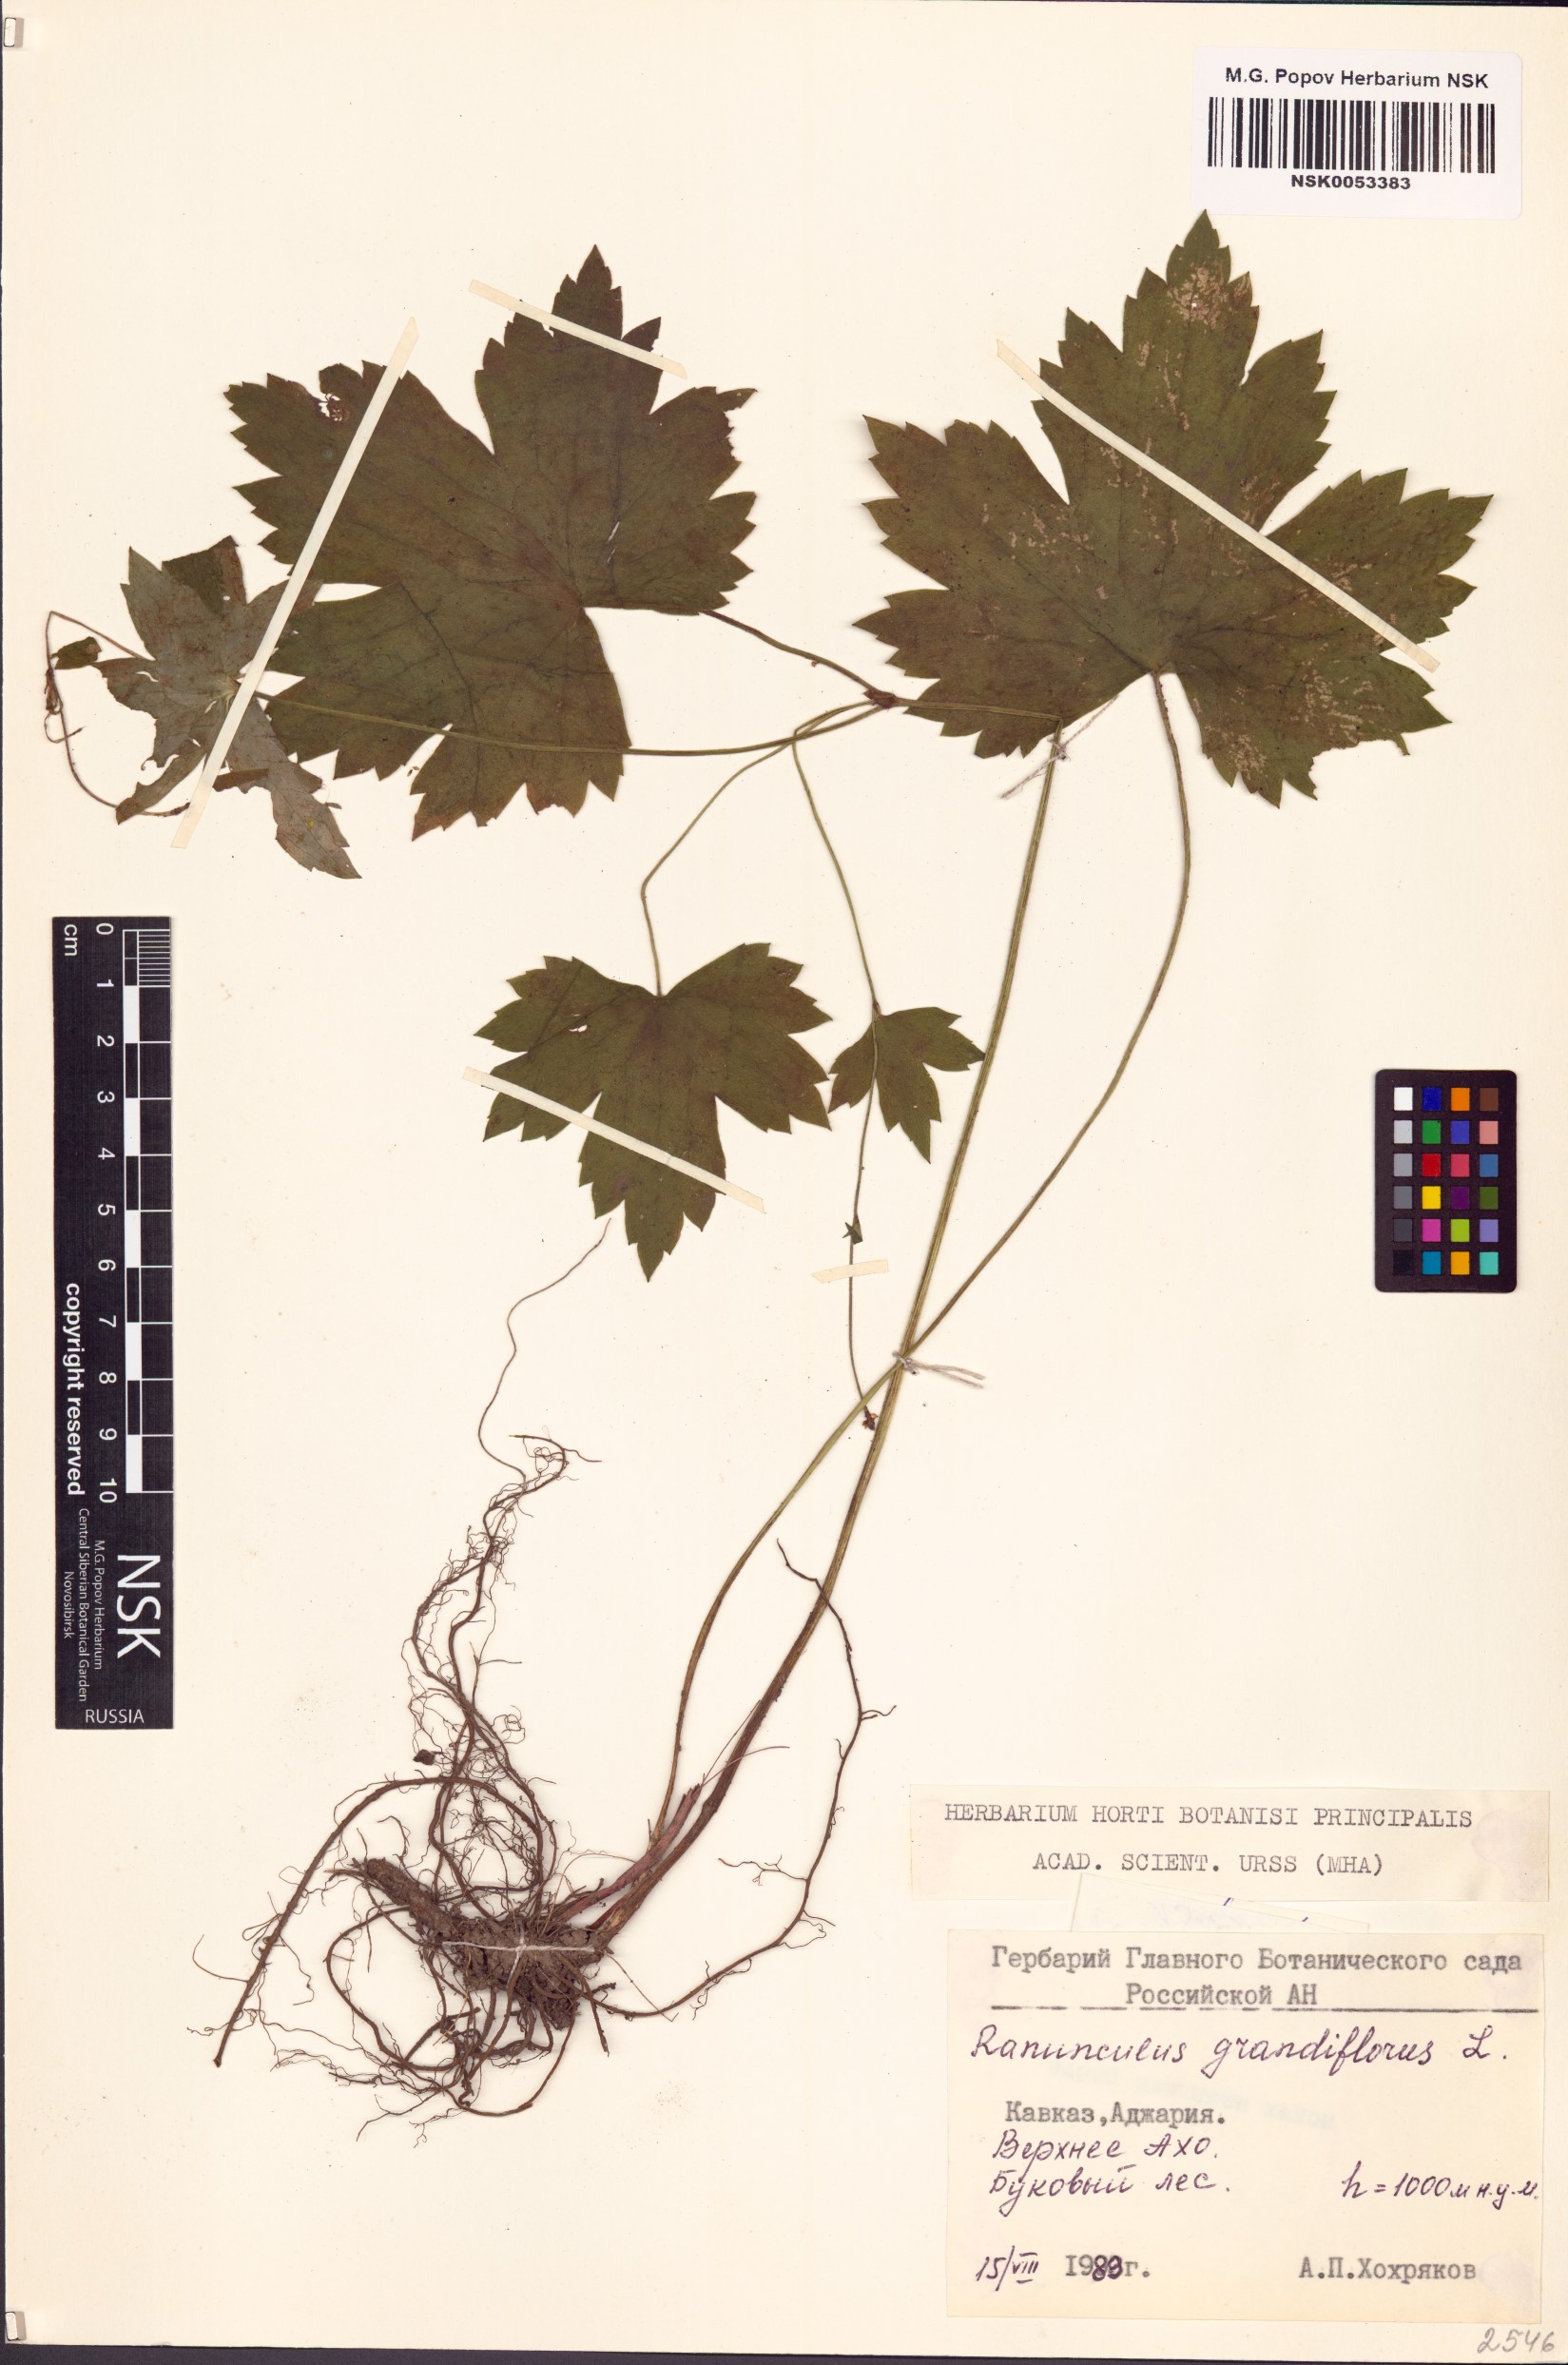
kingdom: Plantae
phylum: Tracheophyta
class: Magnoliopsida
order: Ranunculales
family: Ranunculaceae
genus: Ranunculus
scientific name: Ranunculus grandiflorus
